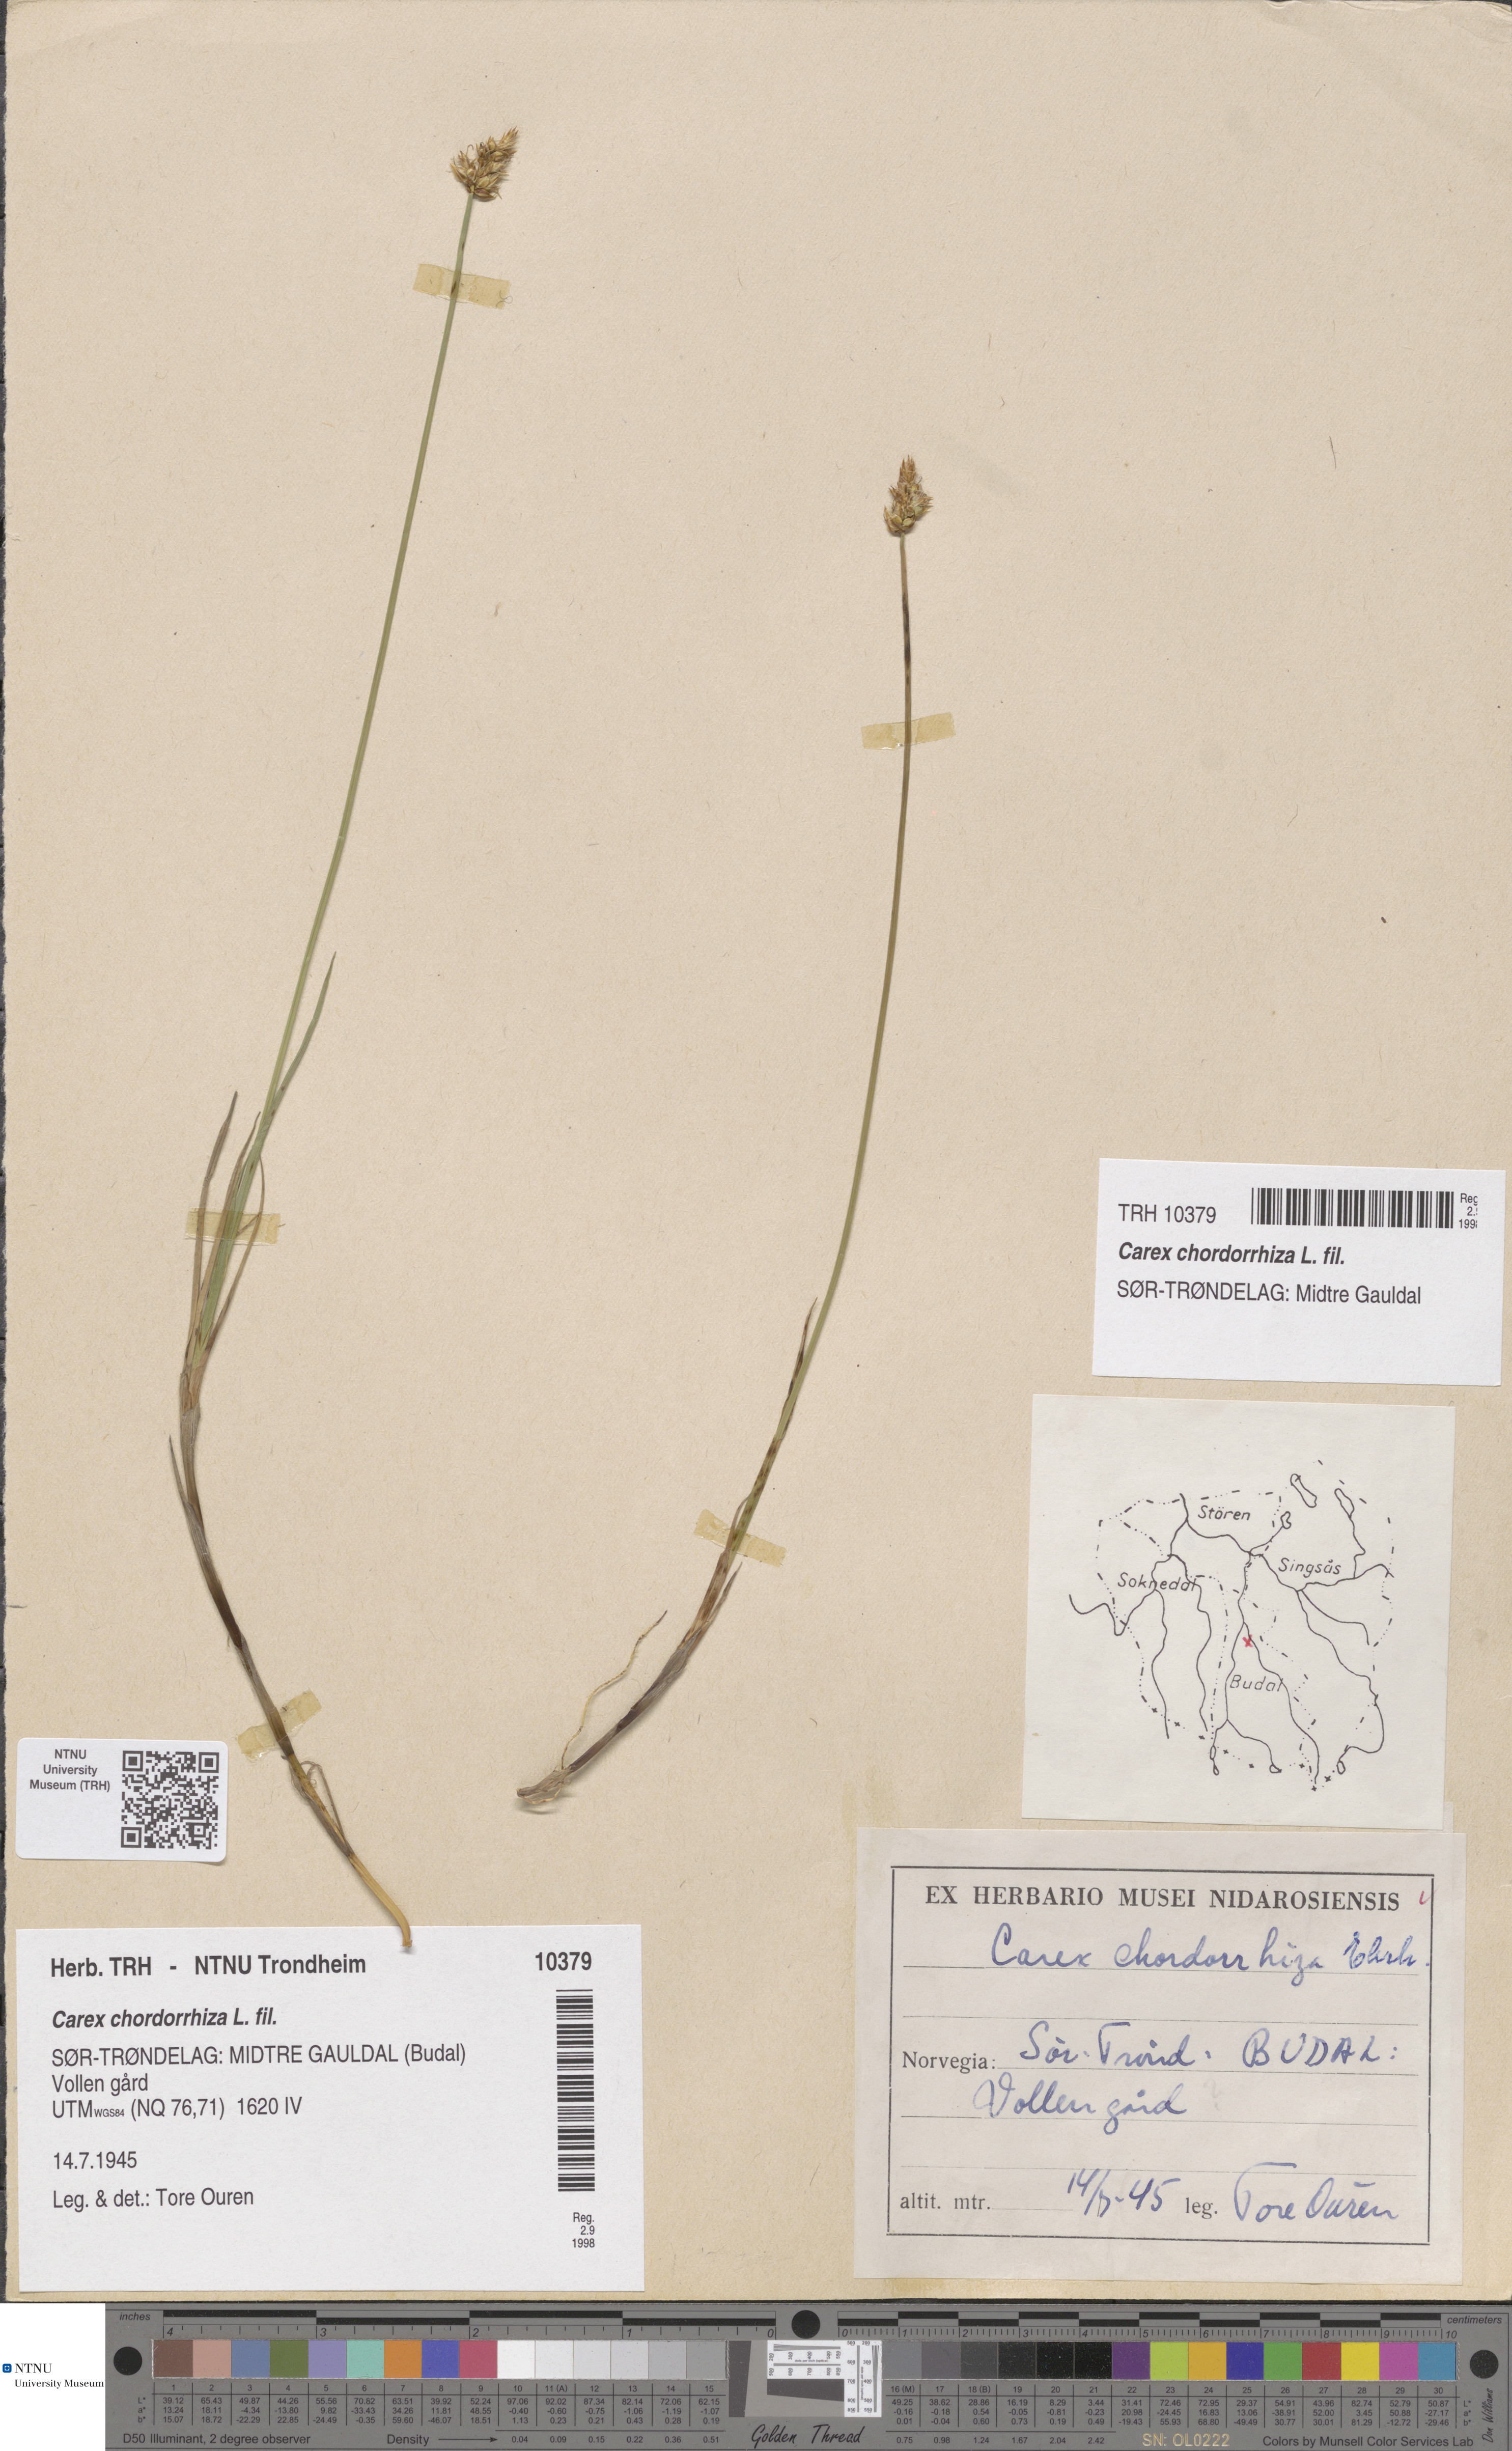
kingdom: Plantae
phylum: Tracheophyta
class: Liliopsida
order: Poales
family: Cyperaceae
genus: Carex
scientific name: Carex chordorrhiza
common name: String sedge
